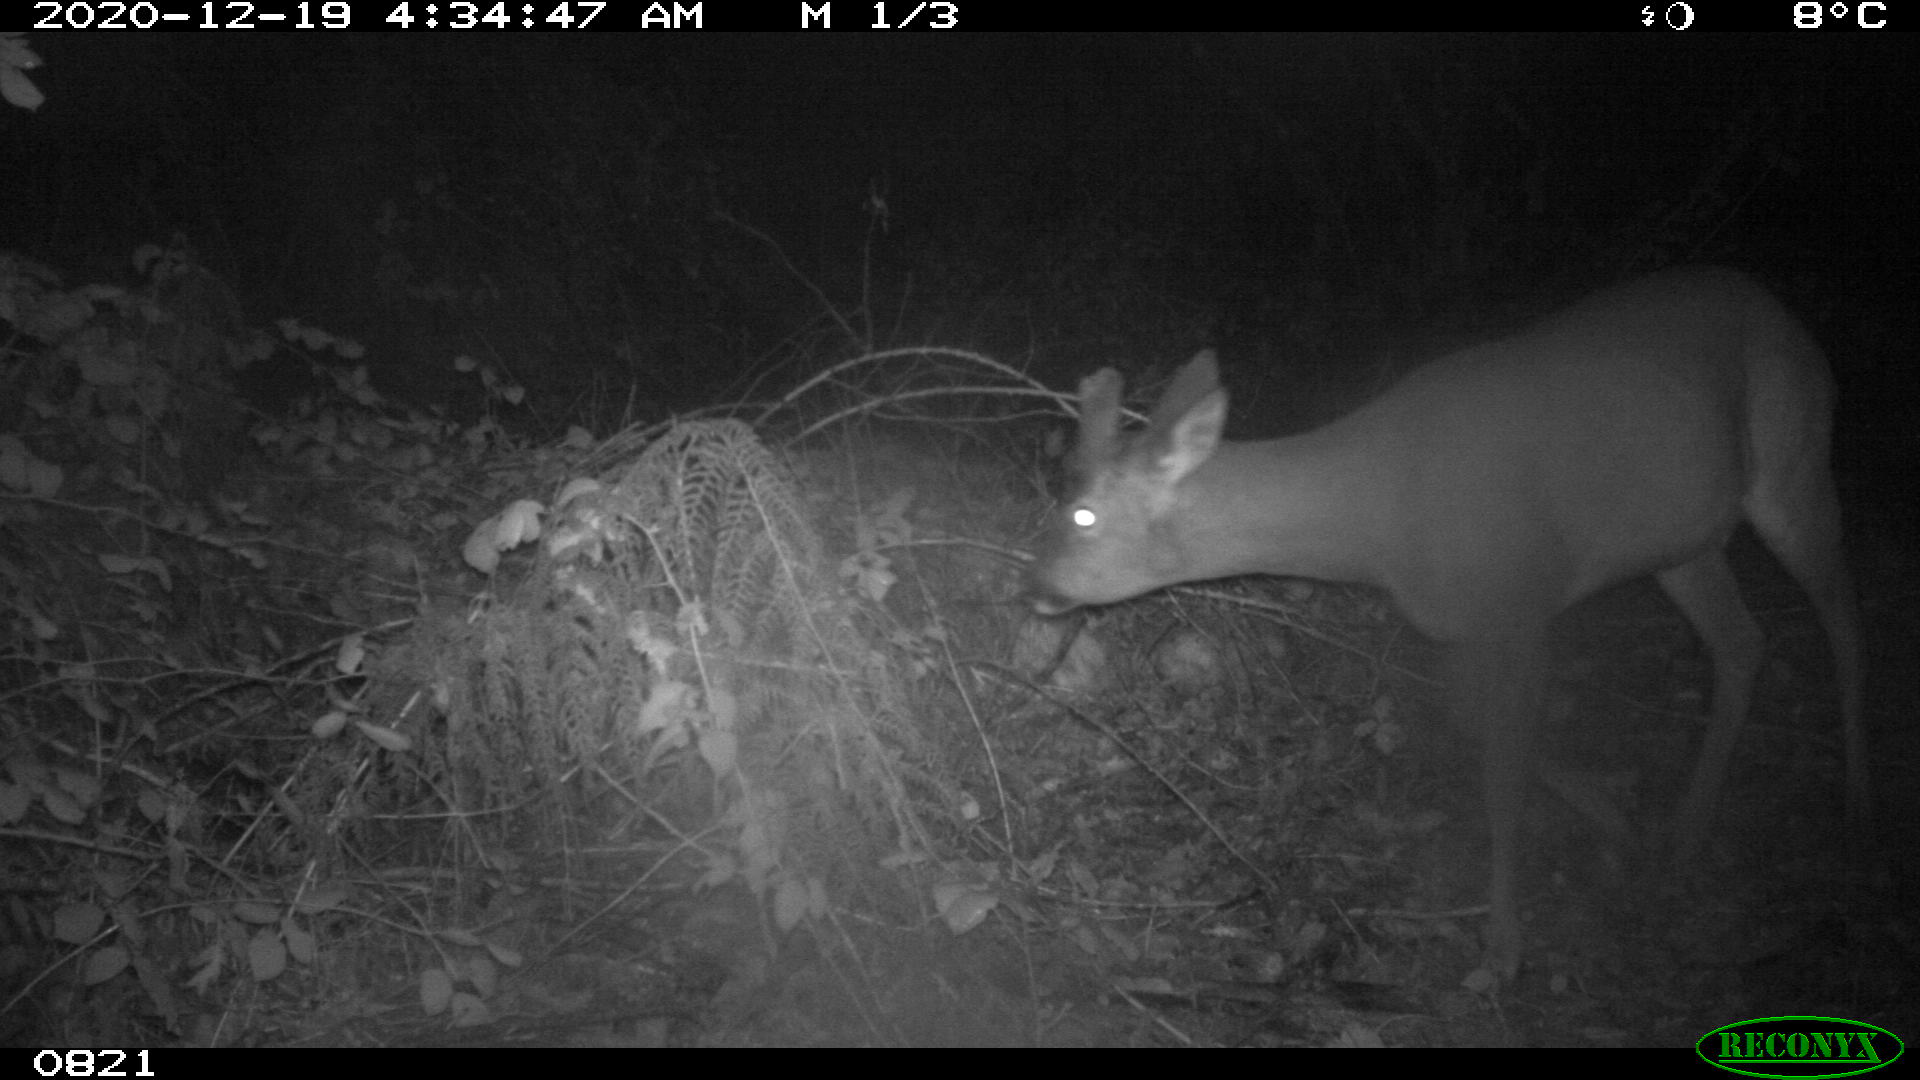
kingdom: Animalia
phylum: Chordata
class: Mammalia
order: Artiodactyla
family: Cervidae
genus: Capreolus
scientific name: Capreolus capreolus
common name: Western roe deer
